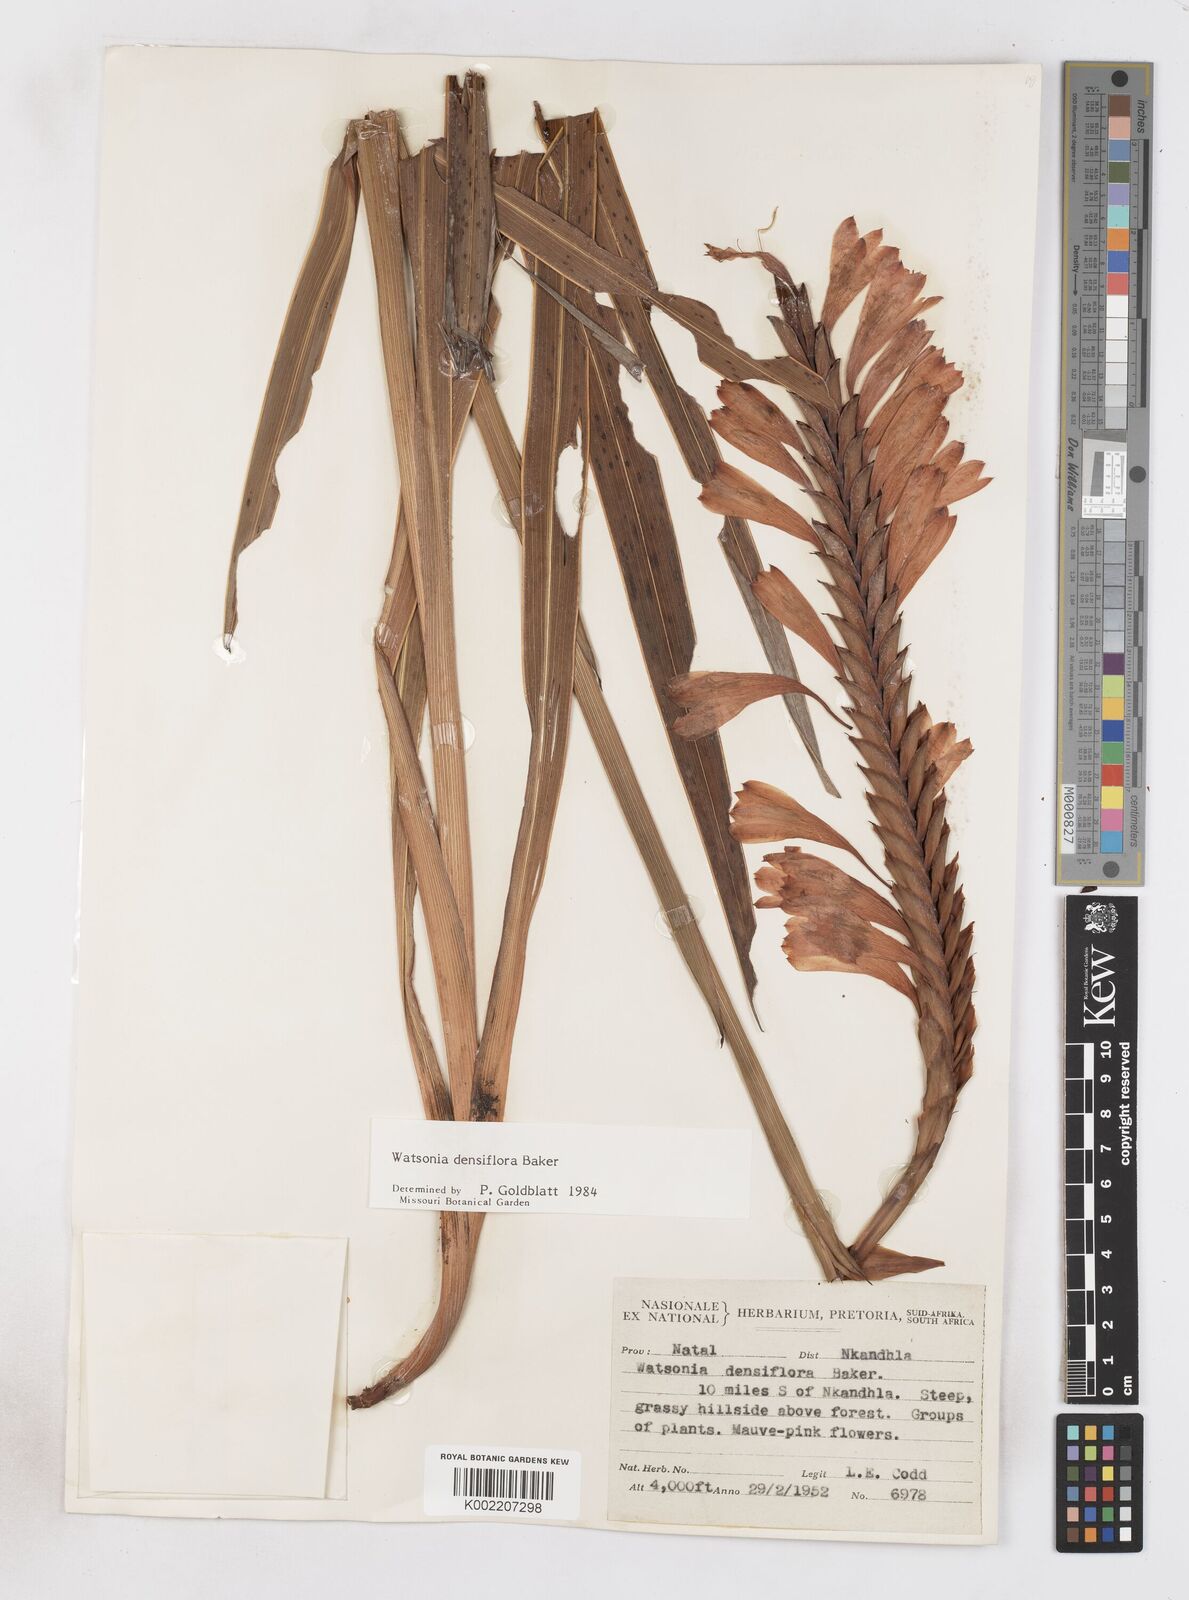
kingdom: Plantae
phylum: Tracheophyta
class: Liliopsida
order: Asparagales
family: Iridaceae
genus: Watsonia
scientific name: Watsonia densiflora
